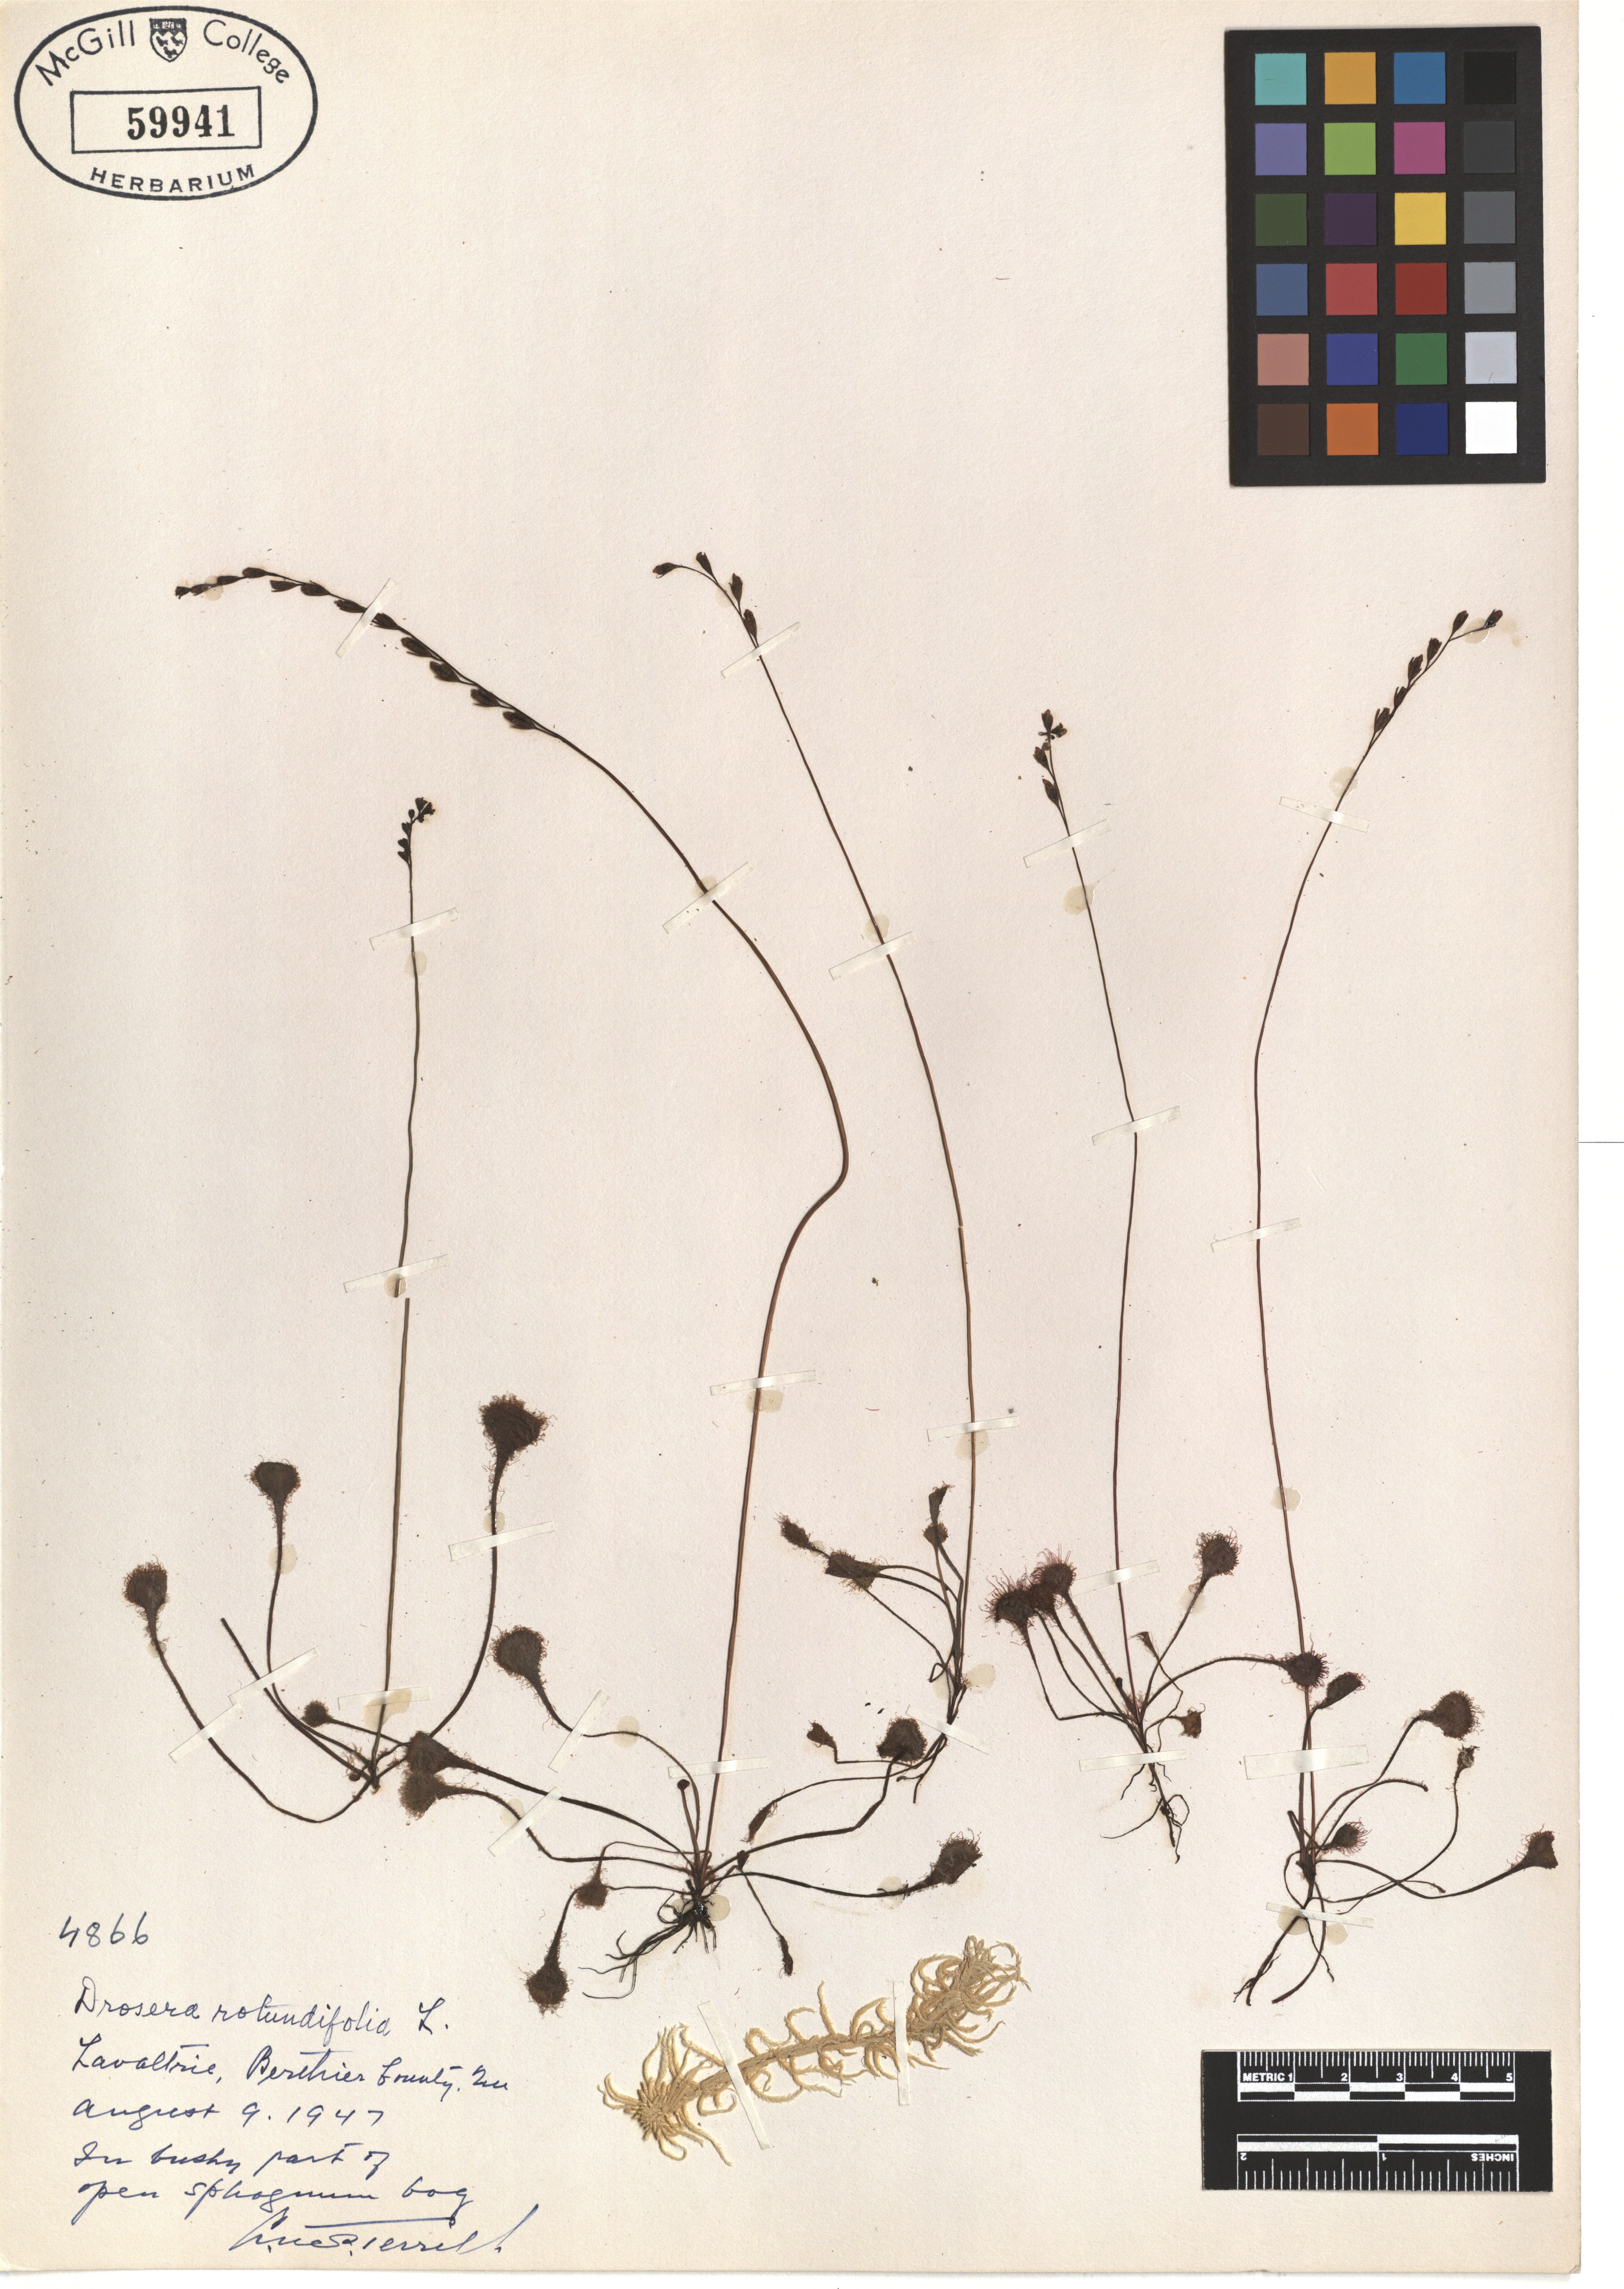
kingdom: Plantae
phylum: Tracheophyta
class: Magnoliopsida
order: Caryophyllales
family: Droseraceae
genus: Drosera
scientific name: Drosera rotundifolia
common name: Round-leaved sundew
